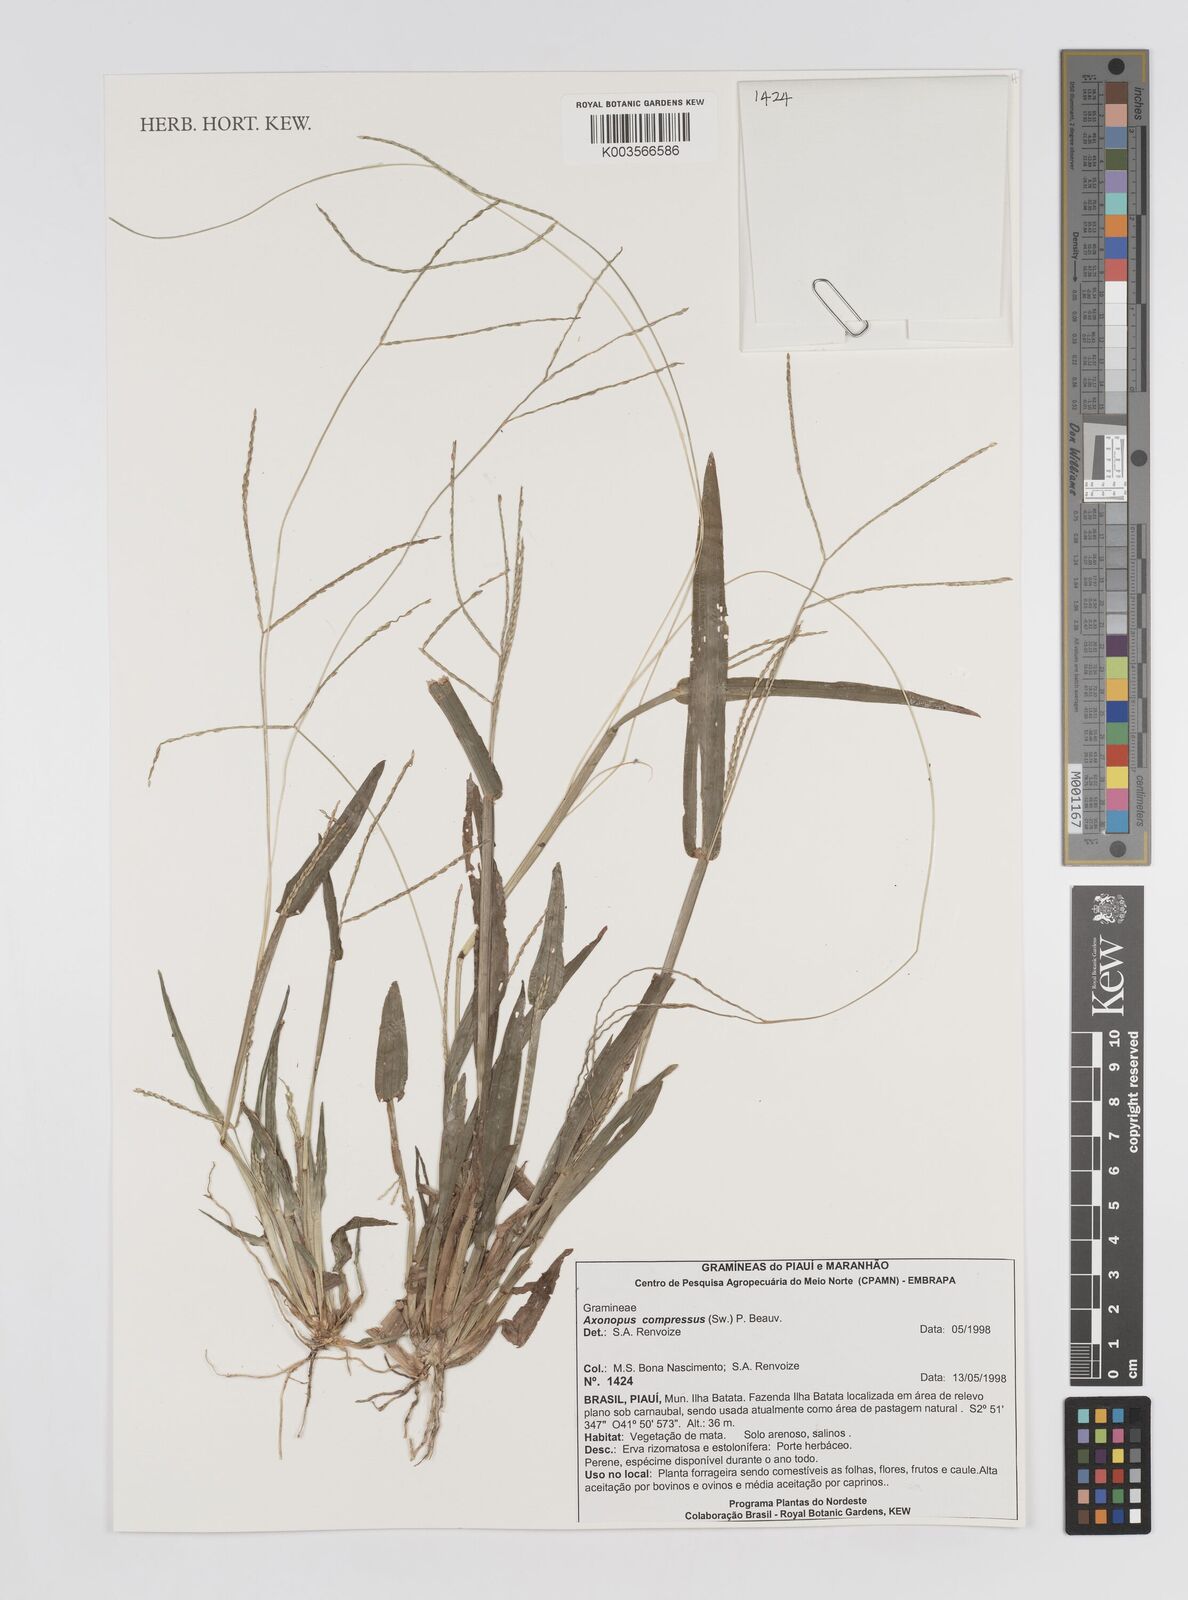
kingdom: Plantae
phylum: Tracheophyta
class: Liliopsida
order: Poales
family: Poaceae
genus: Axonopus
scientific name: Axonopus compressus
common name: American carpet grass
